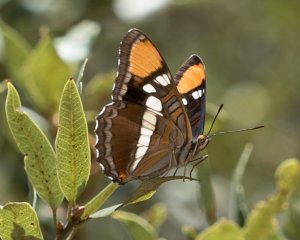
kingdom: Animalia
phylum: Arthropoda
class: Insecta
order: Lepidoptera
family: Nymphalidae
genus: Limenitis
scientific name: Limenitis bredowii
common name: California Sister
